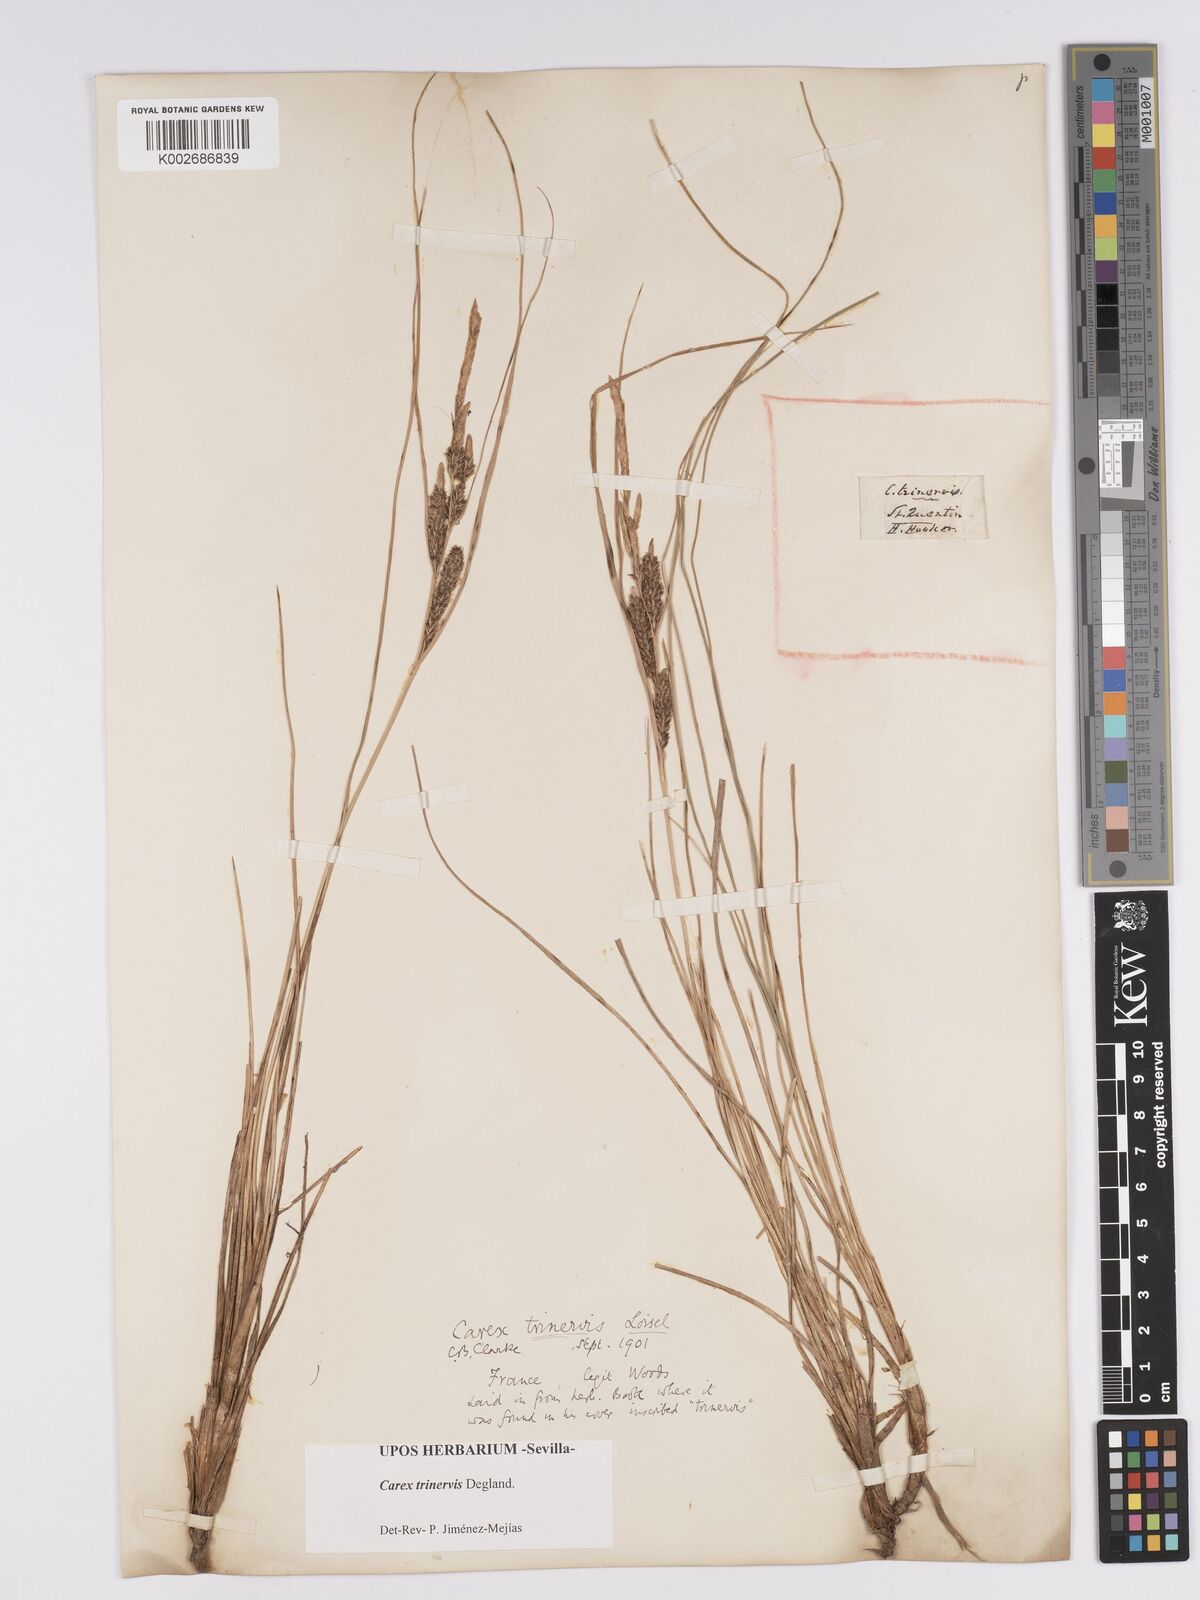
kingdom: Plantae
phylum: Tracheophyta
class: Liliopsida
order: Poales
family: Cyperaceae
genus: Carex
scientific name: Carex trinervis
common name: Three-nerved sedge
